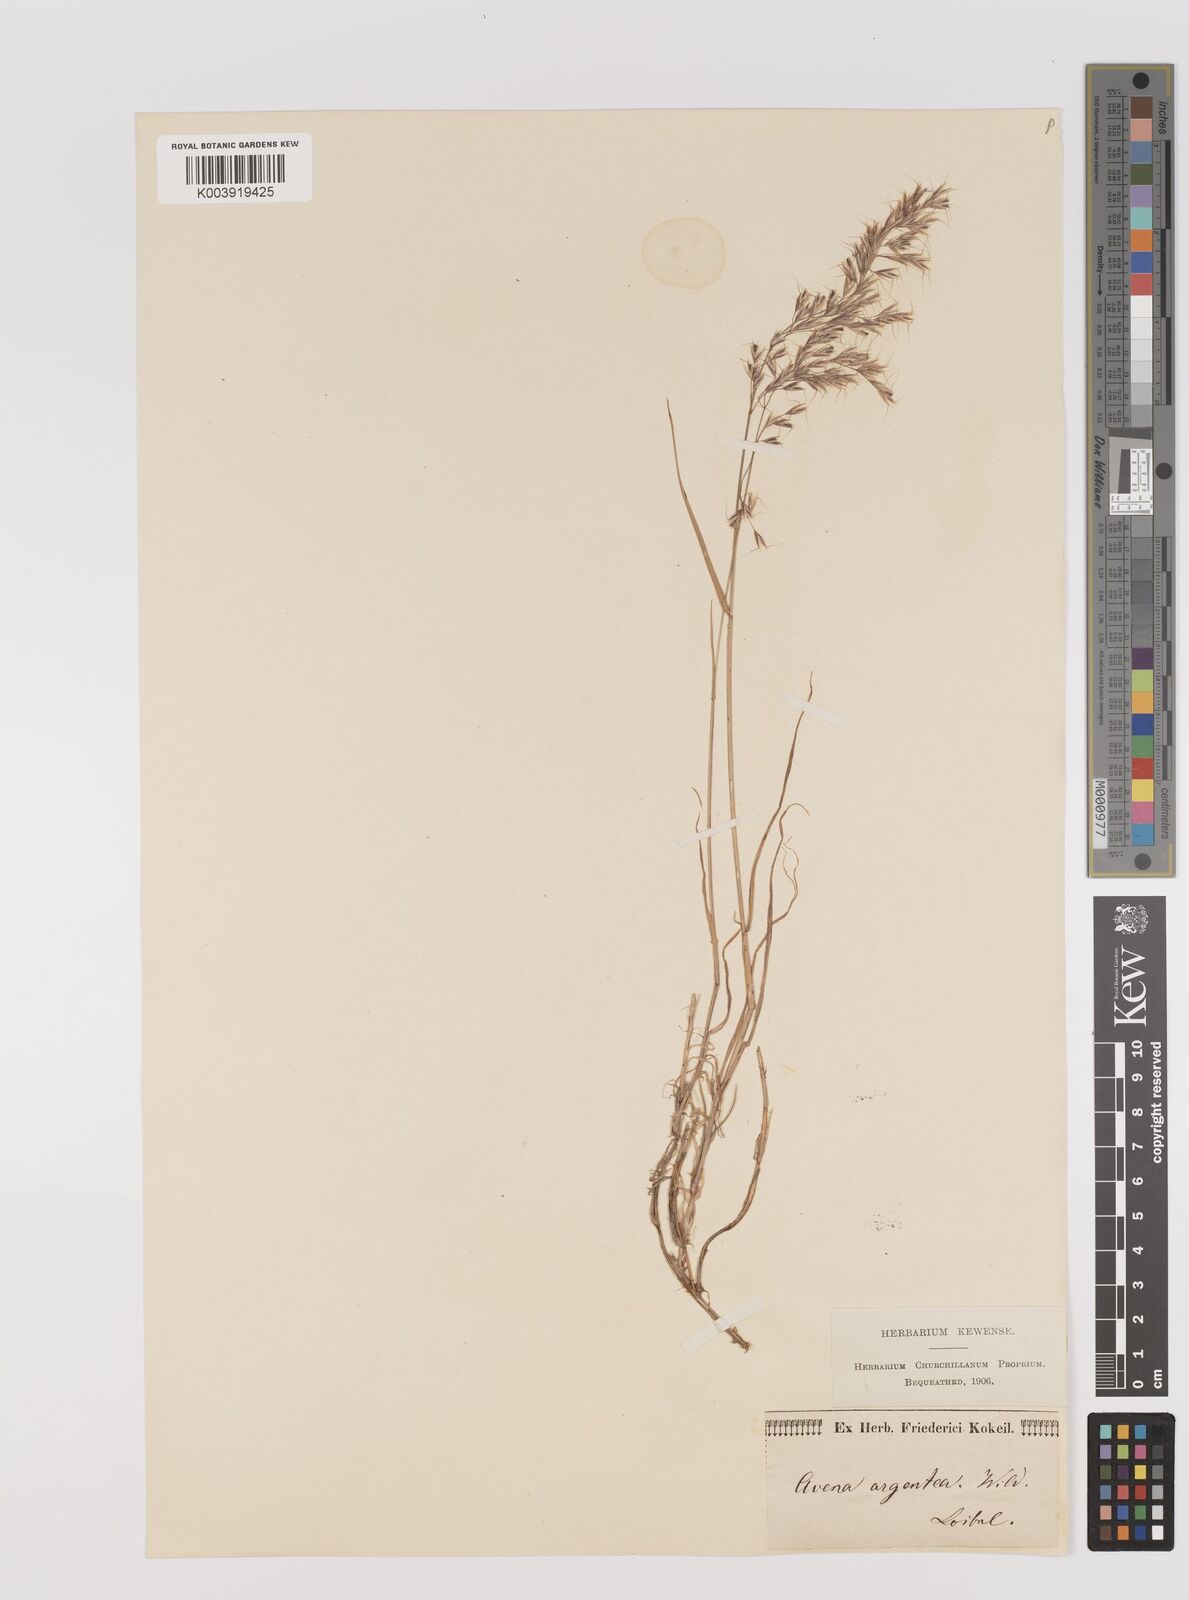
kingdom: Plantae
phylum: Tracheophyta
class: Liliopsida
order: Poales
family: Poaceae
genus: Trisetum
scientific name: Trisetum argenteum
